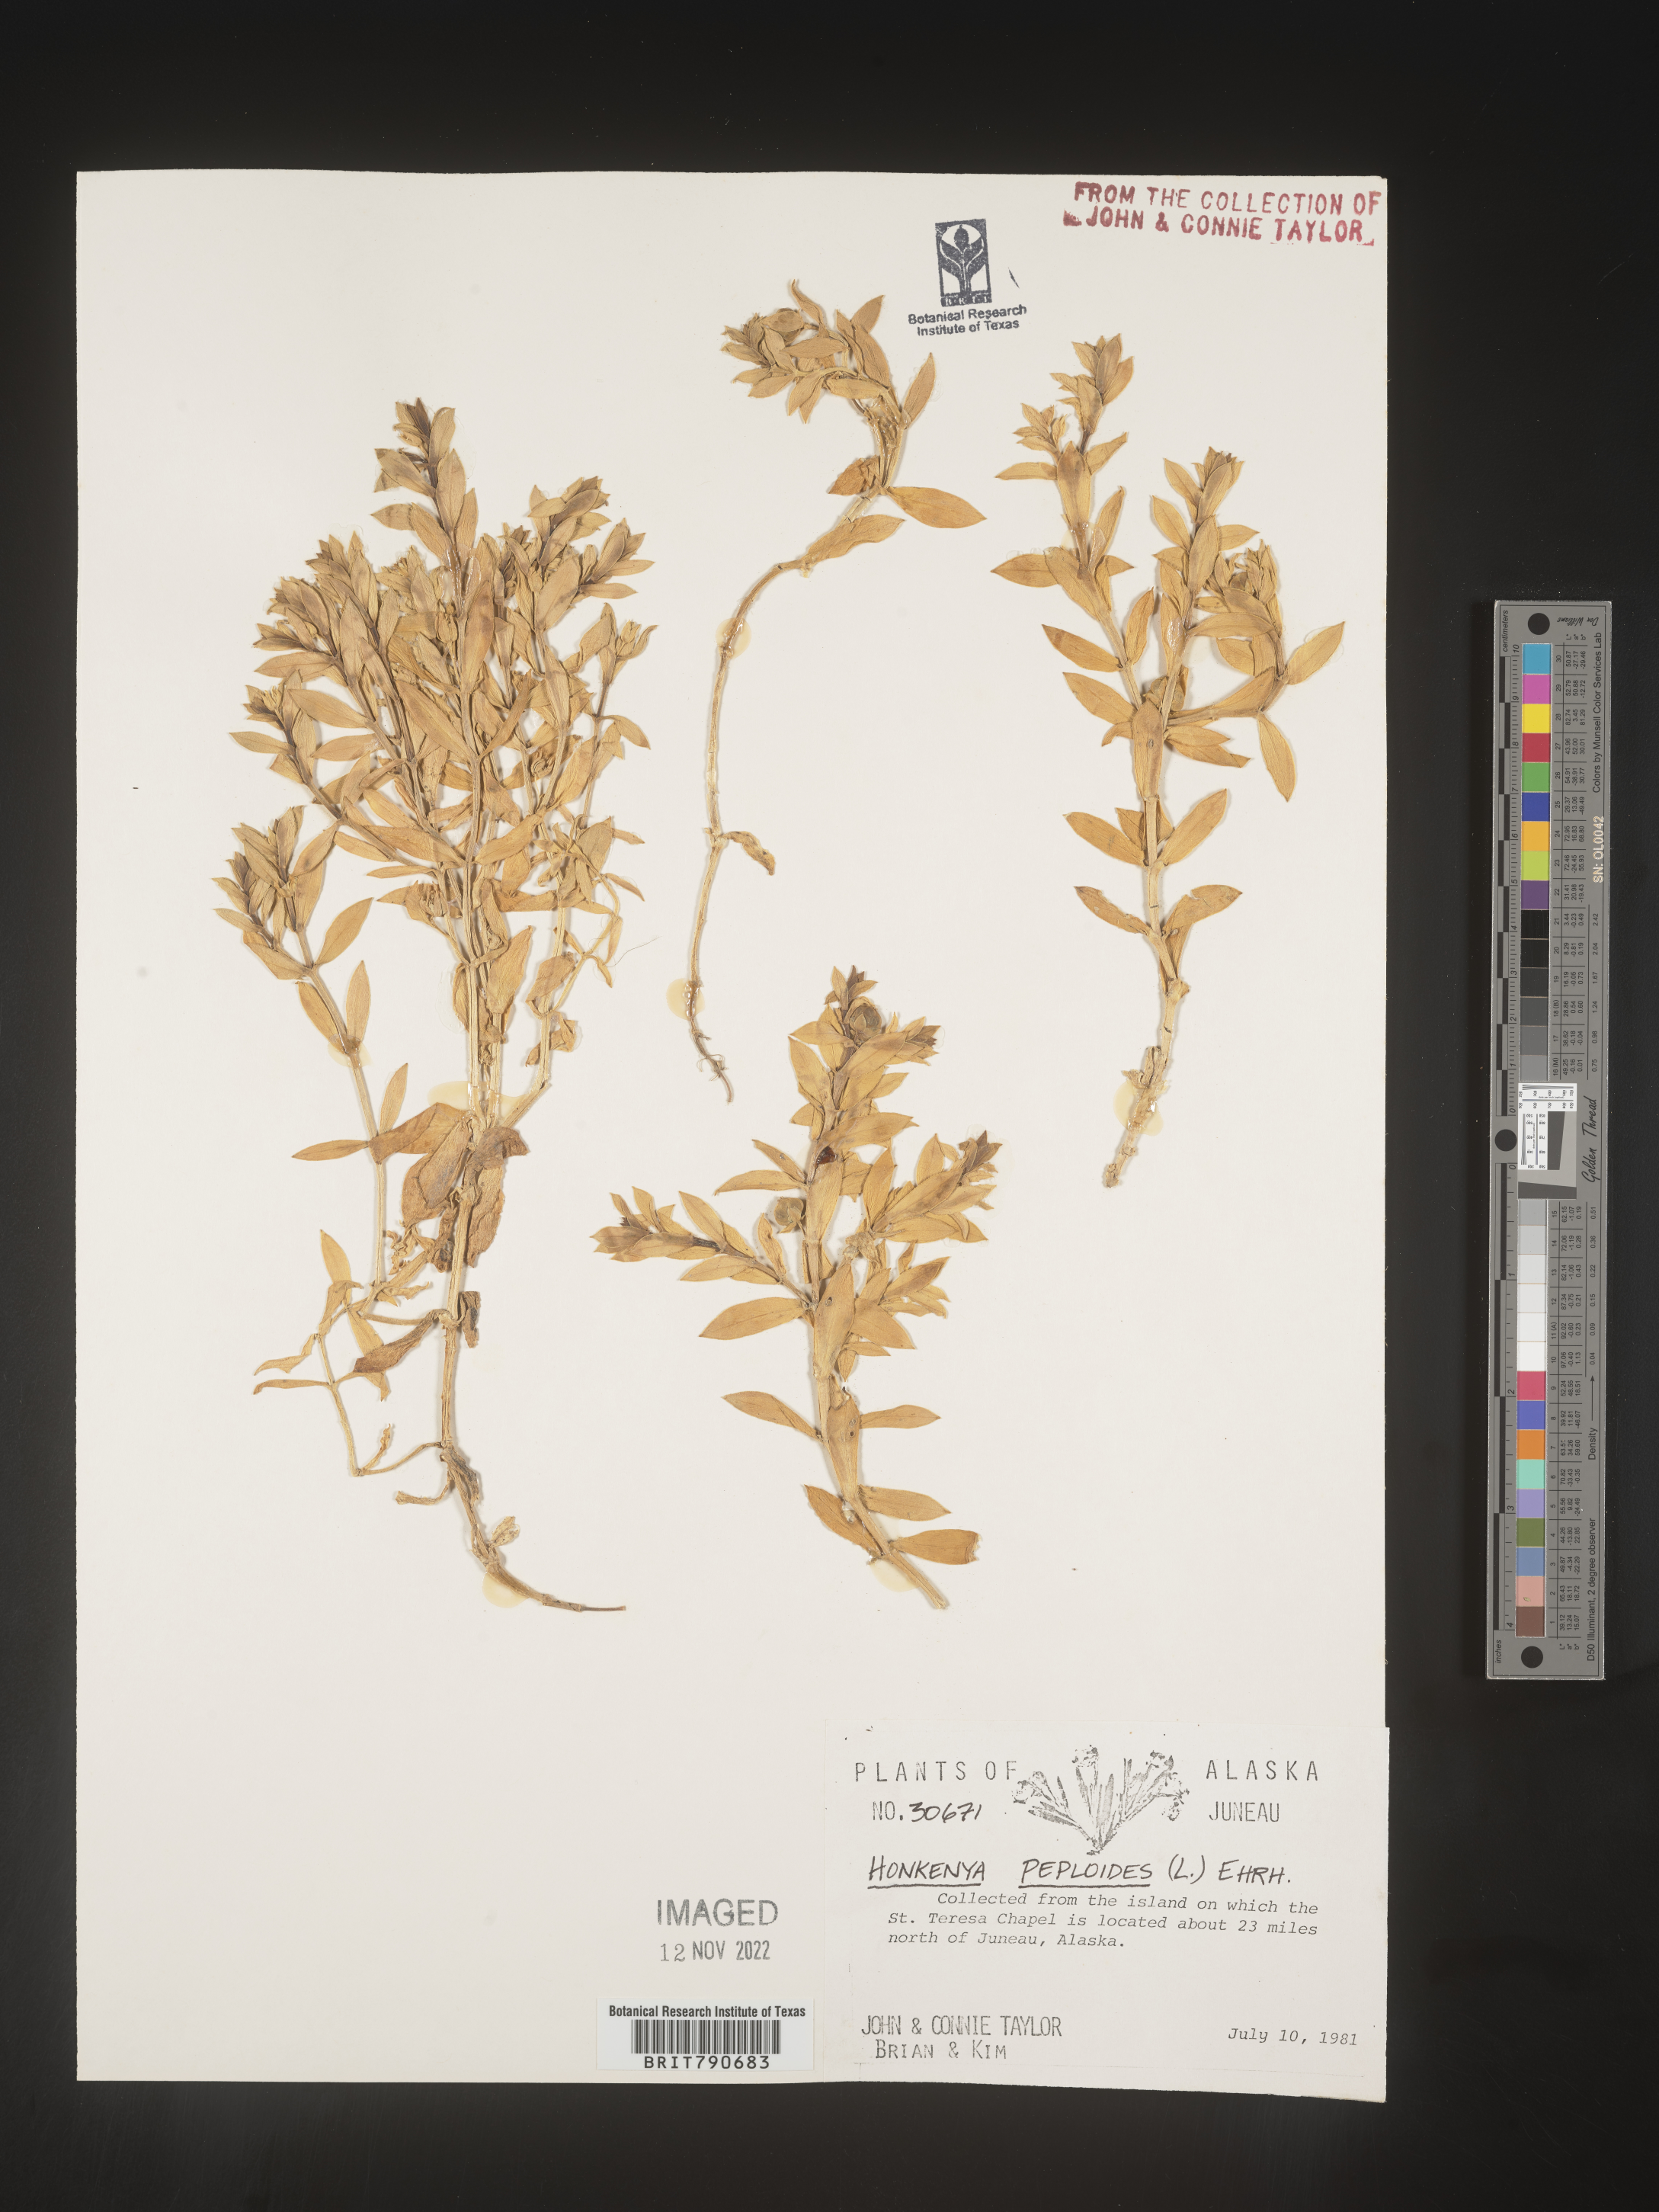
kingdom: Plantae
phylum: Tracheophyta
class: Magnoliopsida
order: Malvales
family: Malvaceae
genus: Clappertonia
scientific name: Clappertonia
